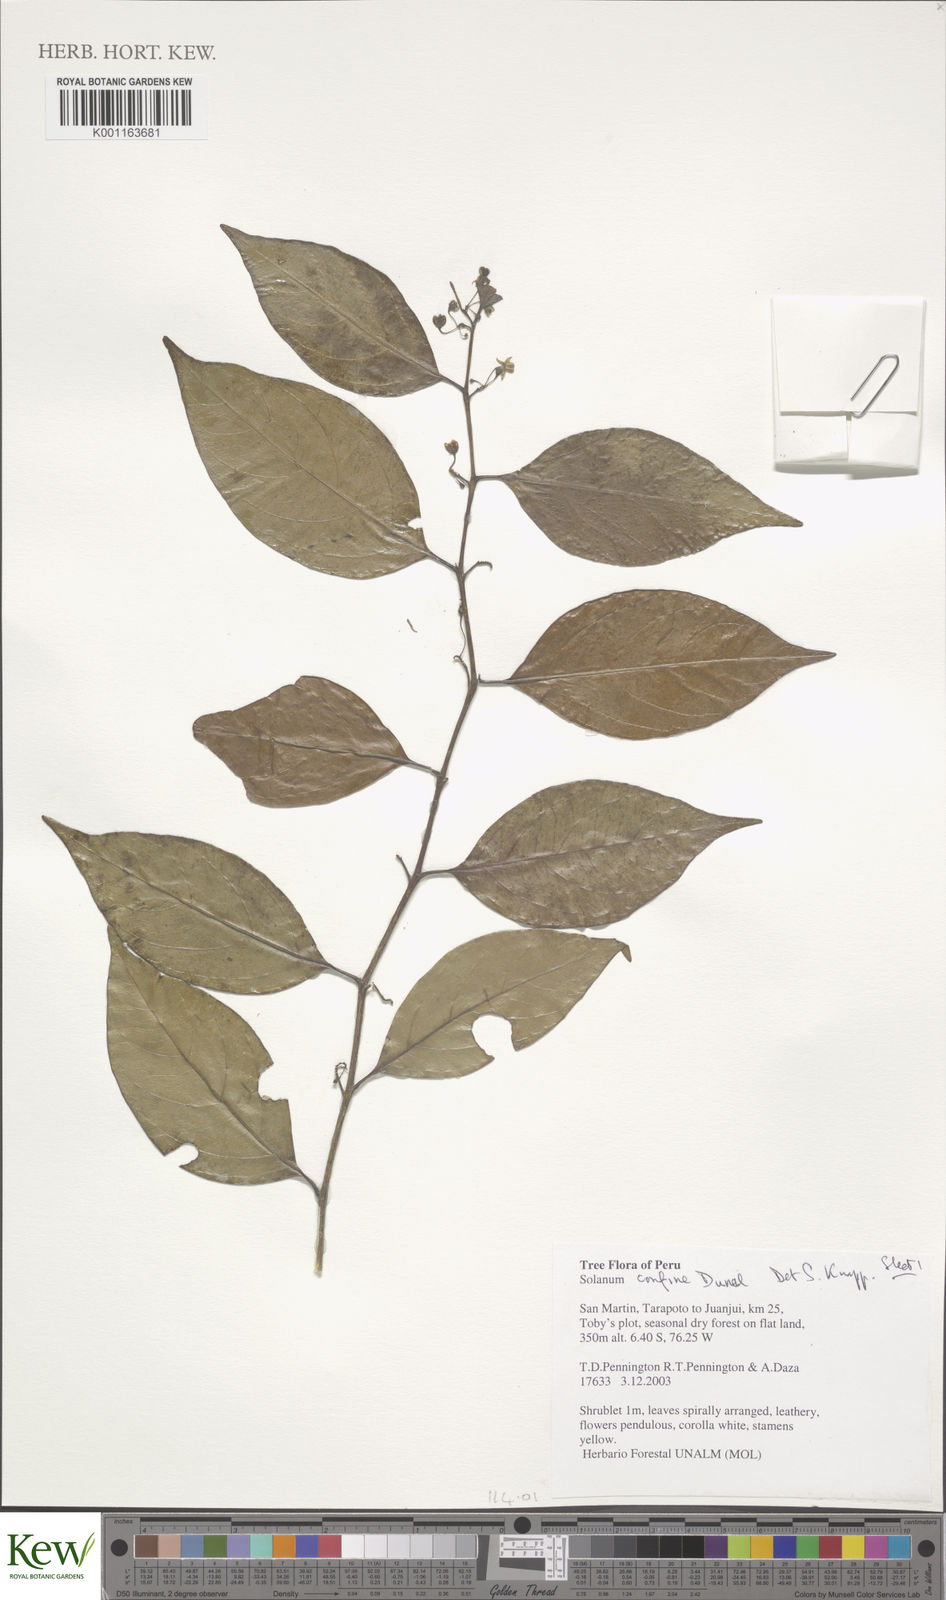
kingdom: Plantae
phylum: Tracheophyta
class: Magnoliopsida
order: Solanales
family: Solanaceae
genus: Solanum
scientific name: Solanum confine
